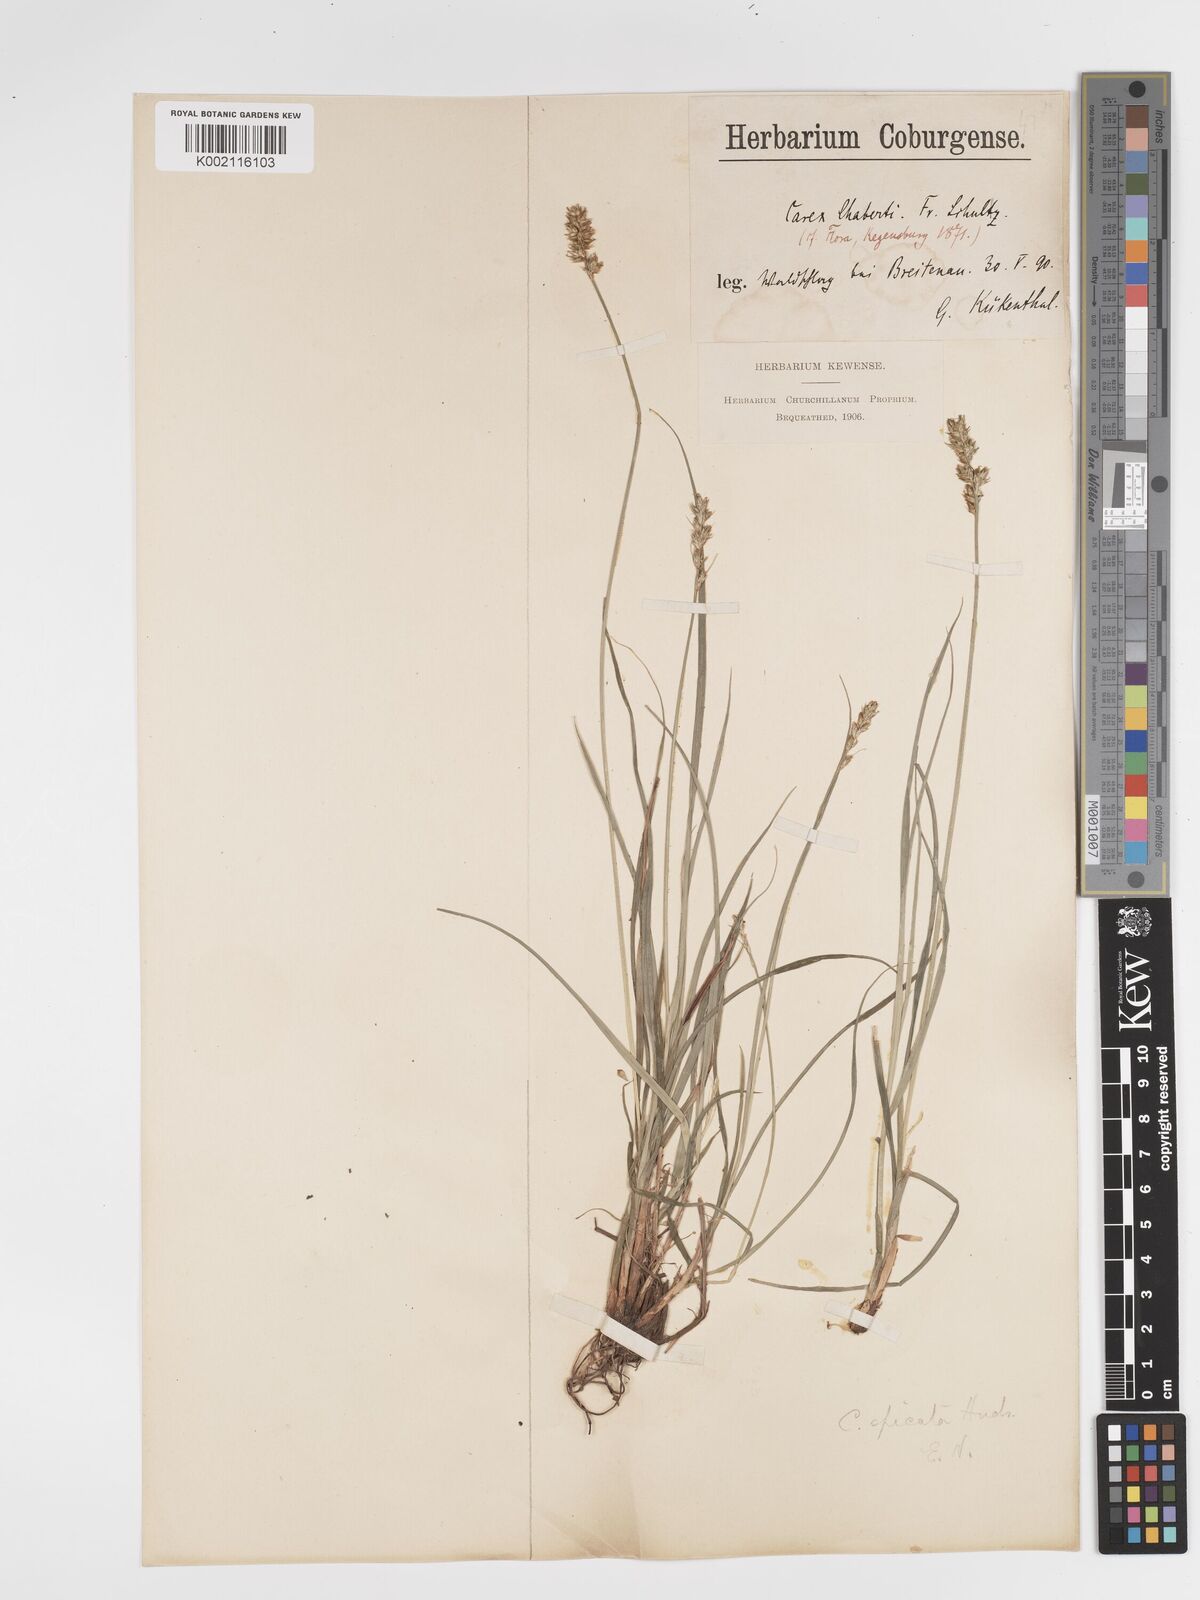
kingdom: Plantae
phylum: Tracheophyta
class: Liliopsida
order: Poales
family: Cyperaceae
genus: Carex
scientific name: Carex spicata
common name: Spiked sedge
